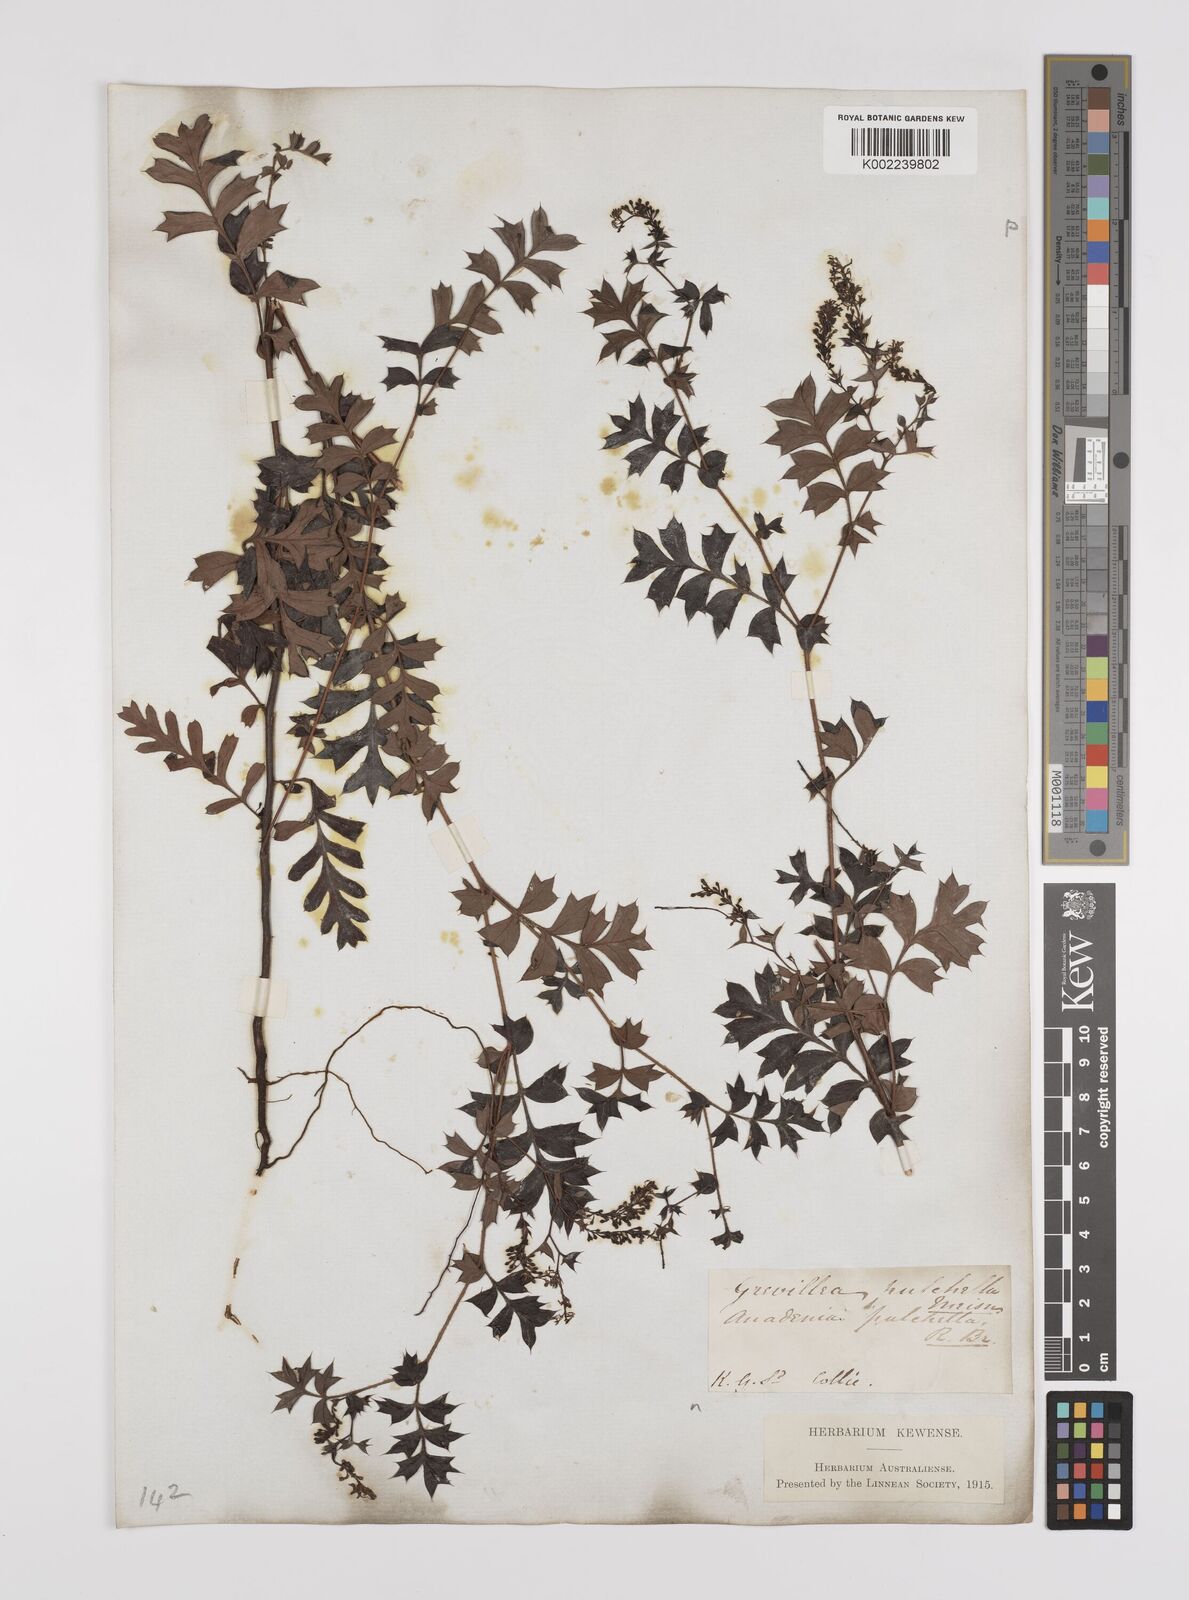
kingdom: Plantae
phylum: Tracheophyta
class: Magnoliopsida
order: Proteales
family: Proteaceae
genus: Grevillea
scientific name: Grevillea pulchella
